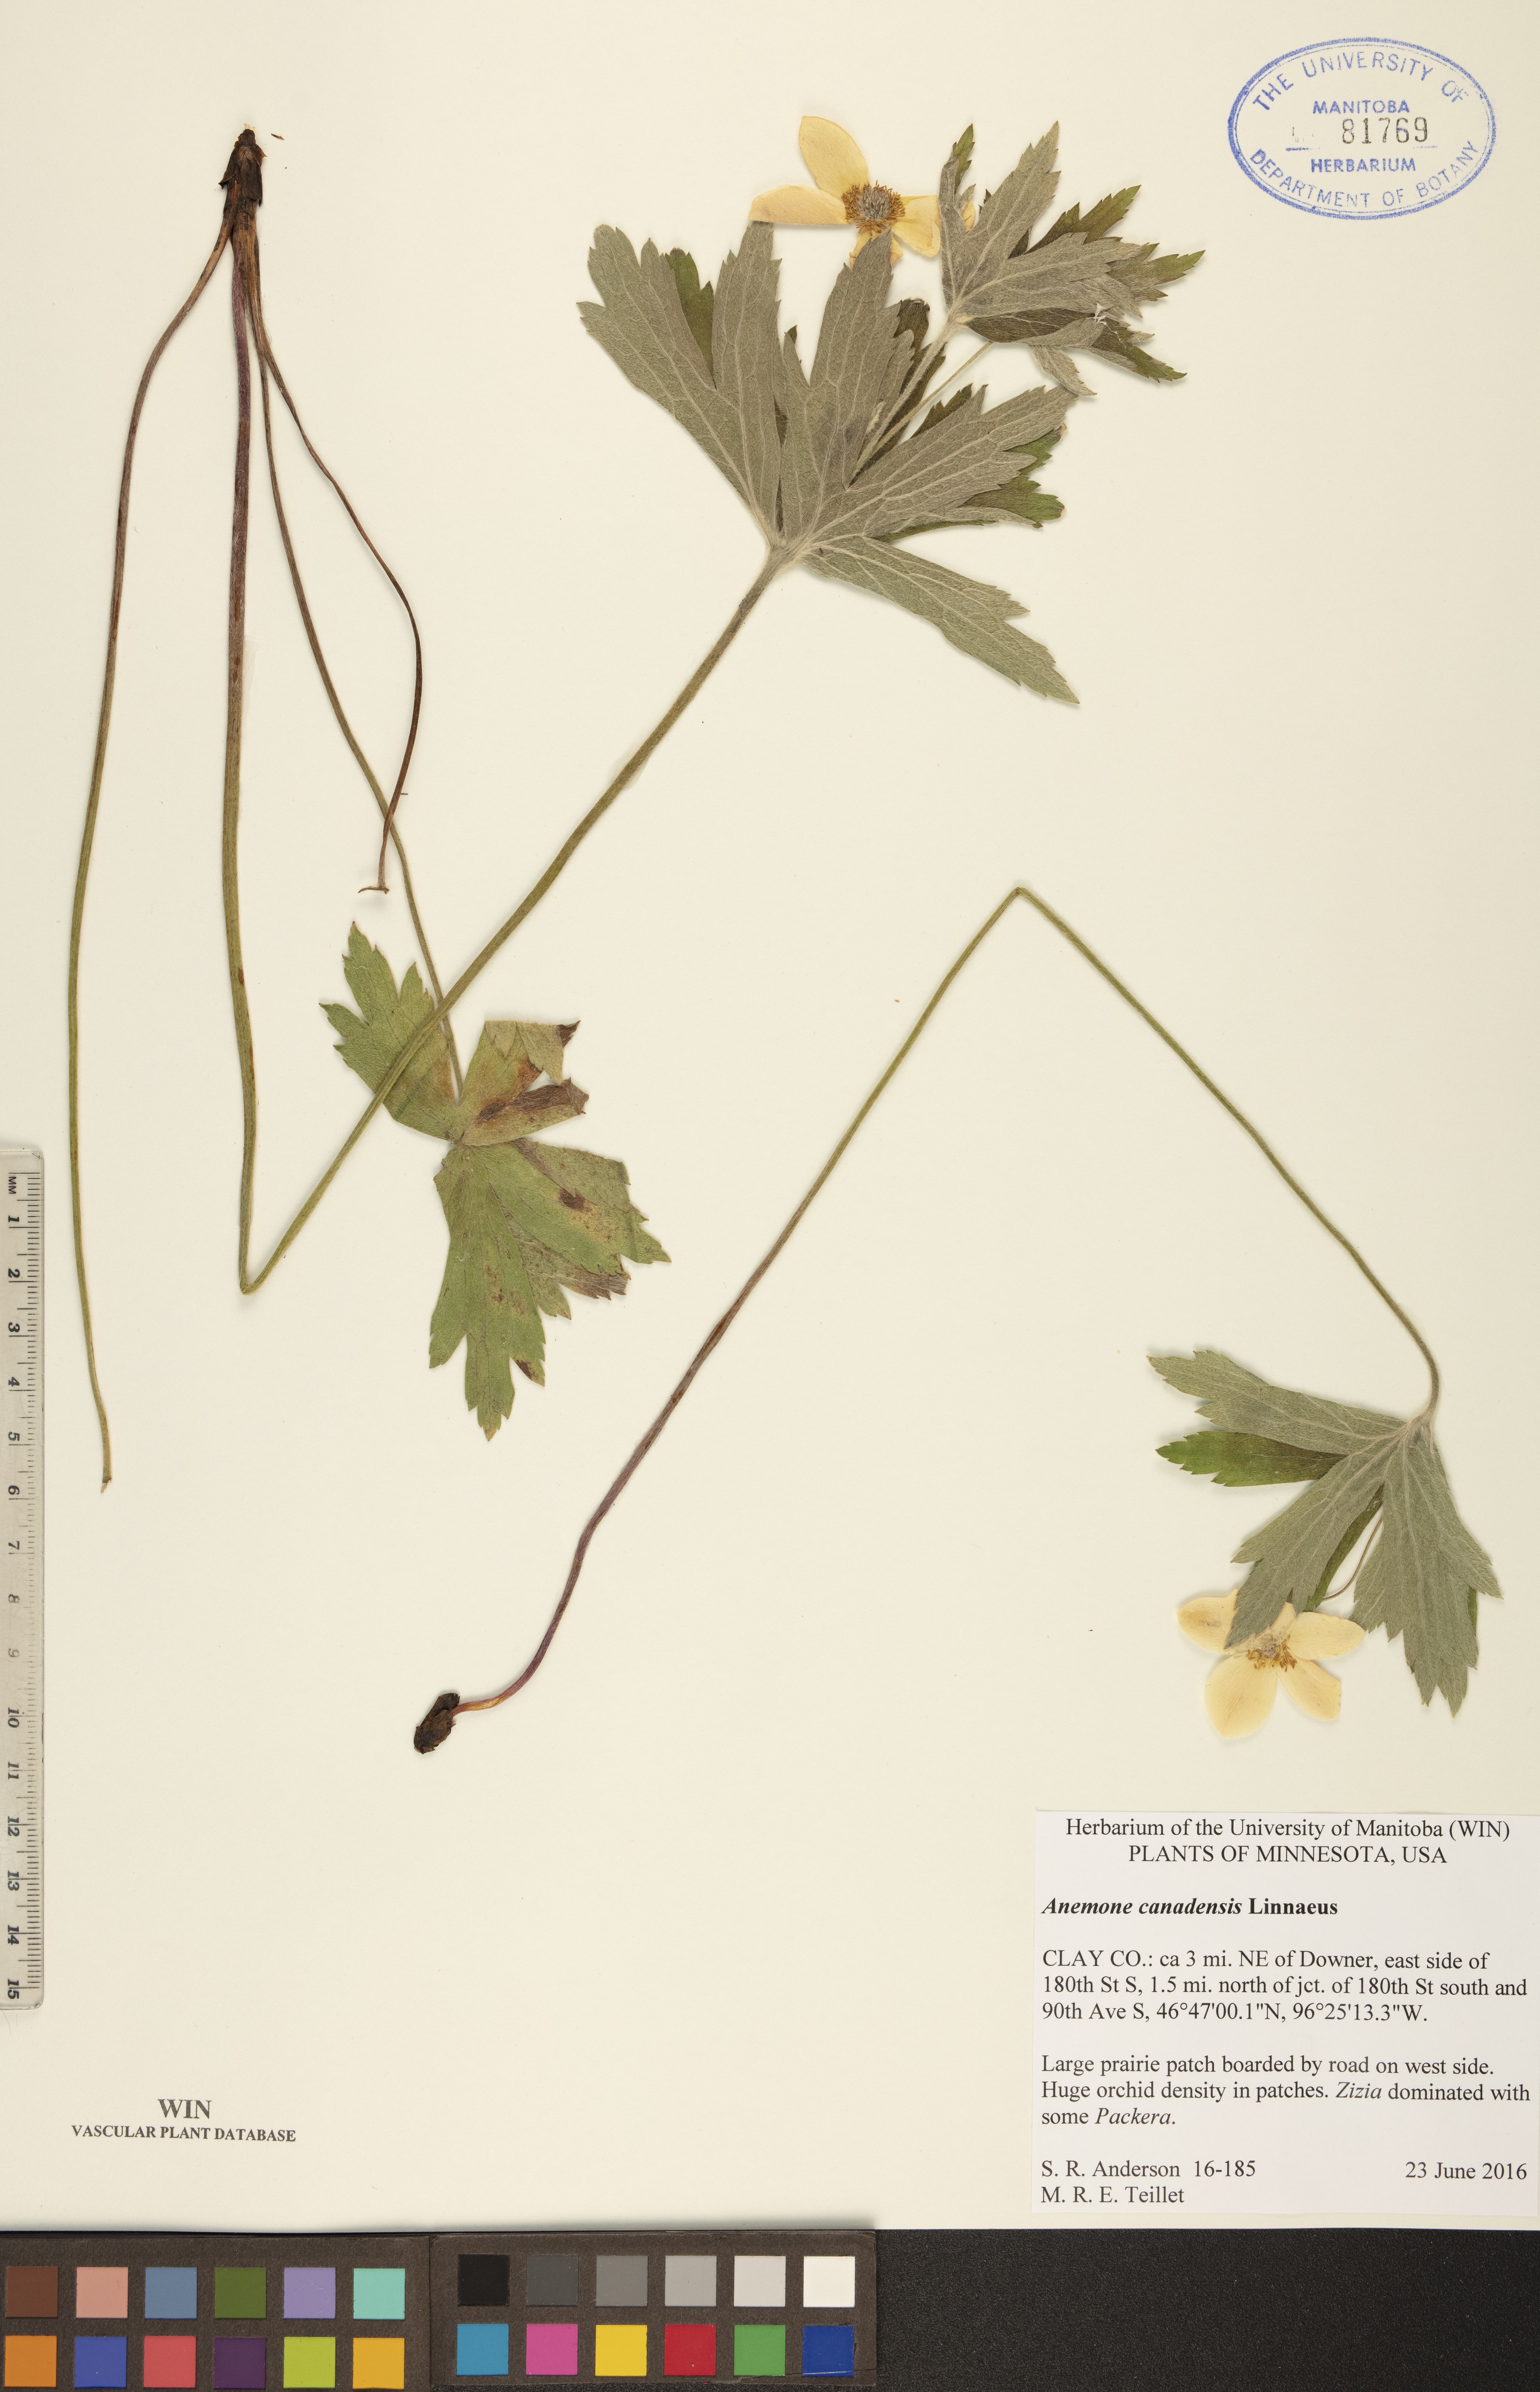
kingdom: Plantae
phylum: Tracheophyta
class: Magnoliopsida
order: Ranunculales
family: Ranunculaceae
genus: Anemonastrum
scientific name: Anemonastrum canadense
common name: Canada anemone
